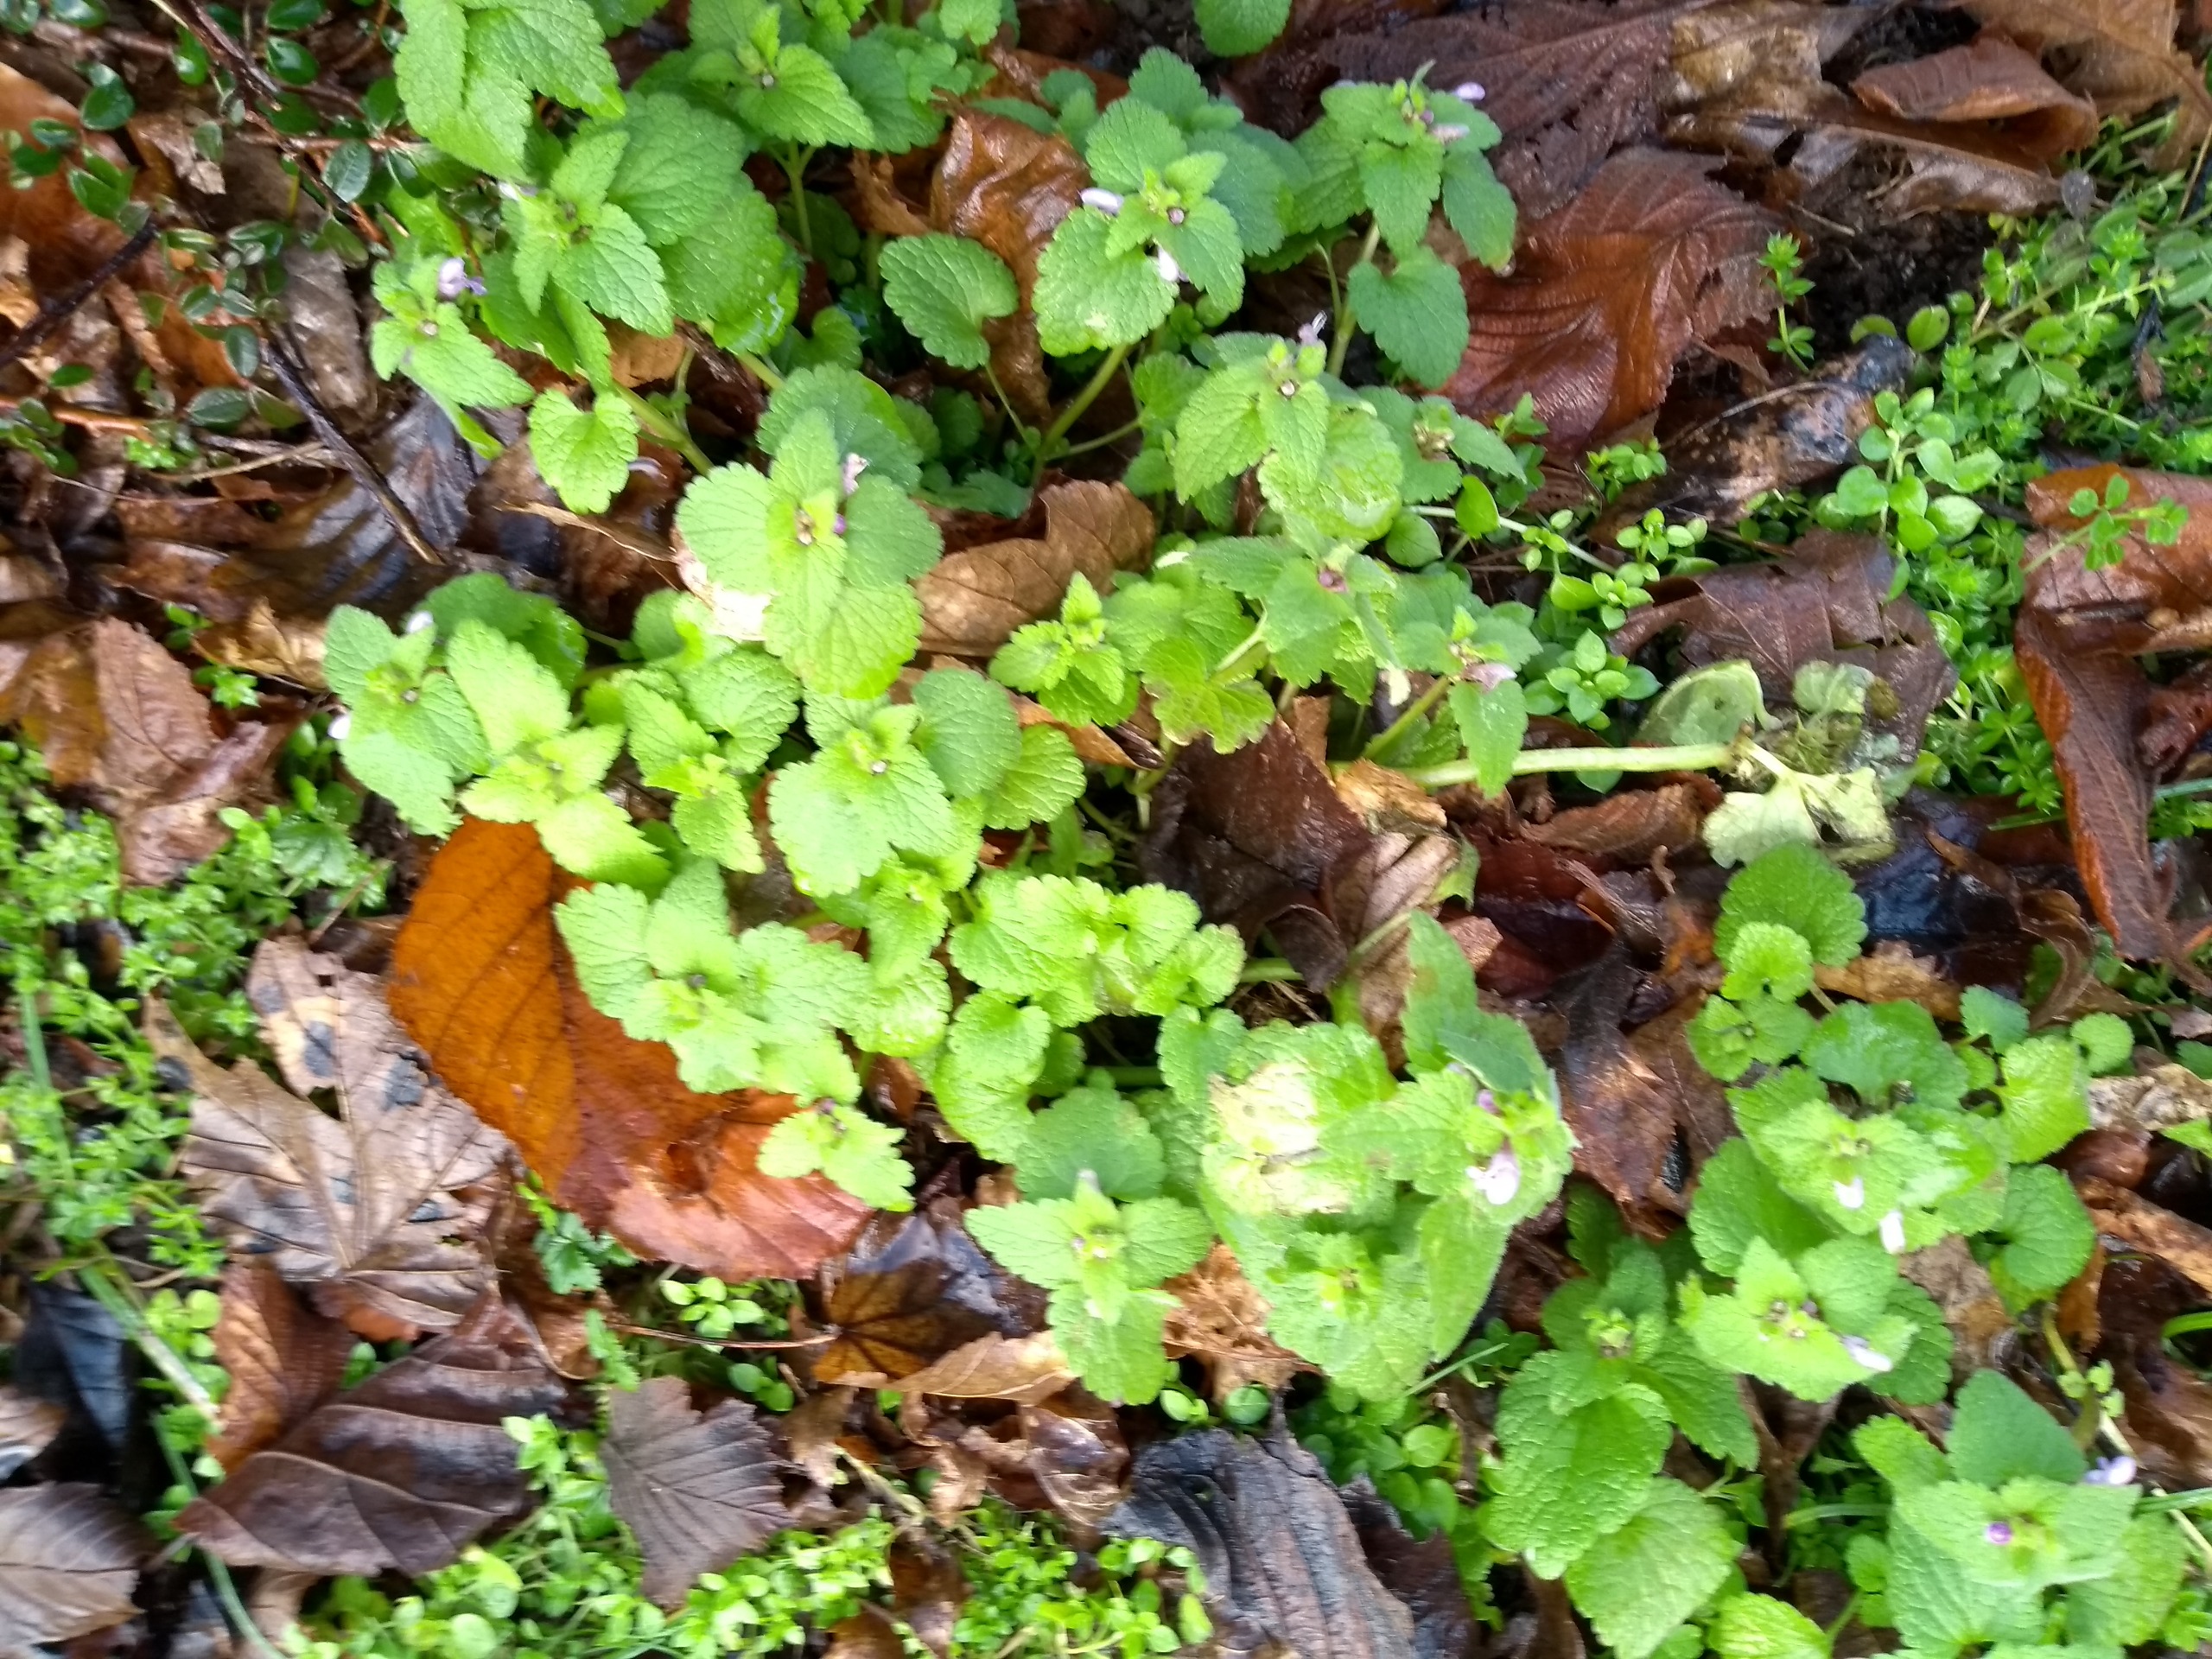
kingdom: Plantae
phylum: Tracheophyta
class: Magnoliopsida
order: Lamiales
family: Lamiaceae
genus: Lamium
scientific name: Lamium purpureum
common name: Rød tvetand
